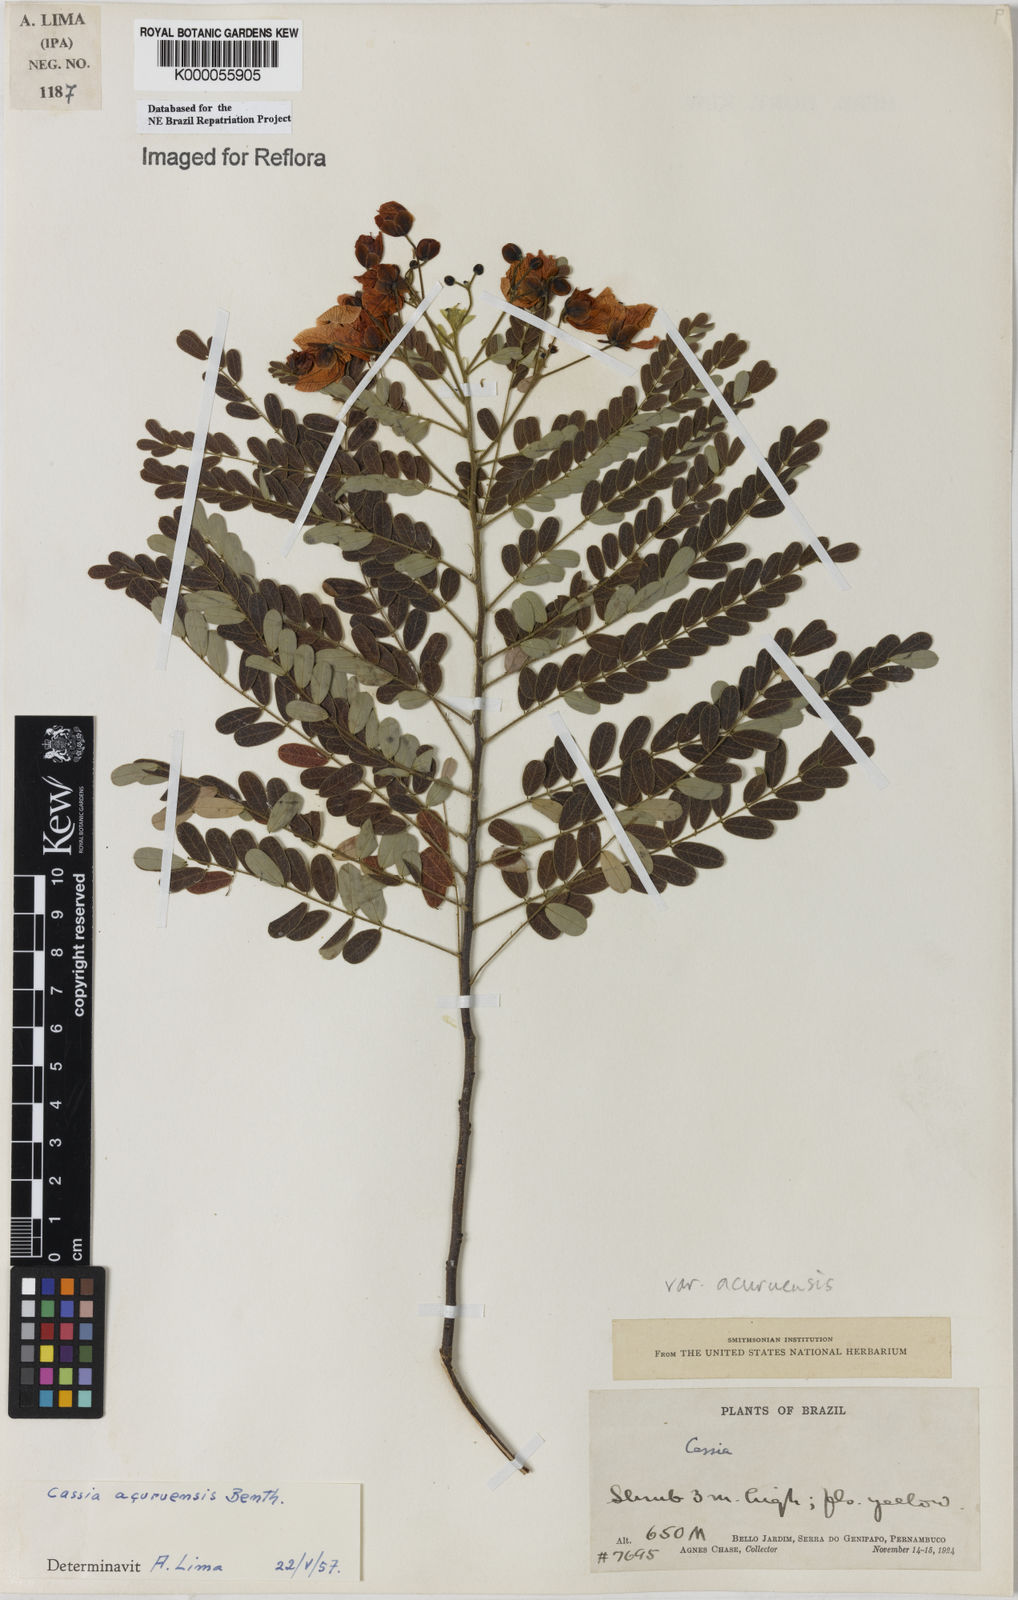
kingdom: Plantae
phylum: Tracheophyta
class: Magnoliopsida
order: Fabales
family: Fabaceae
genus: Senna
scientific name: Senna acuruensis
